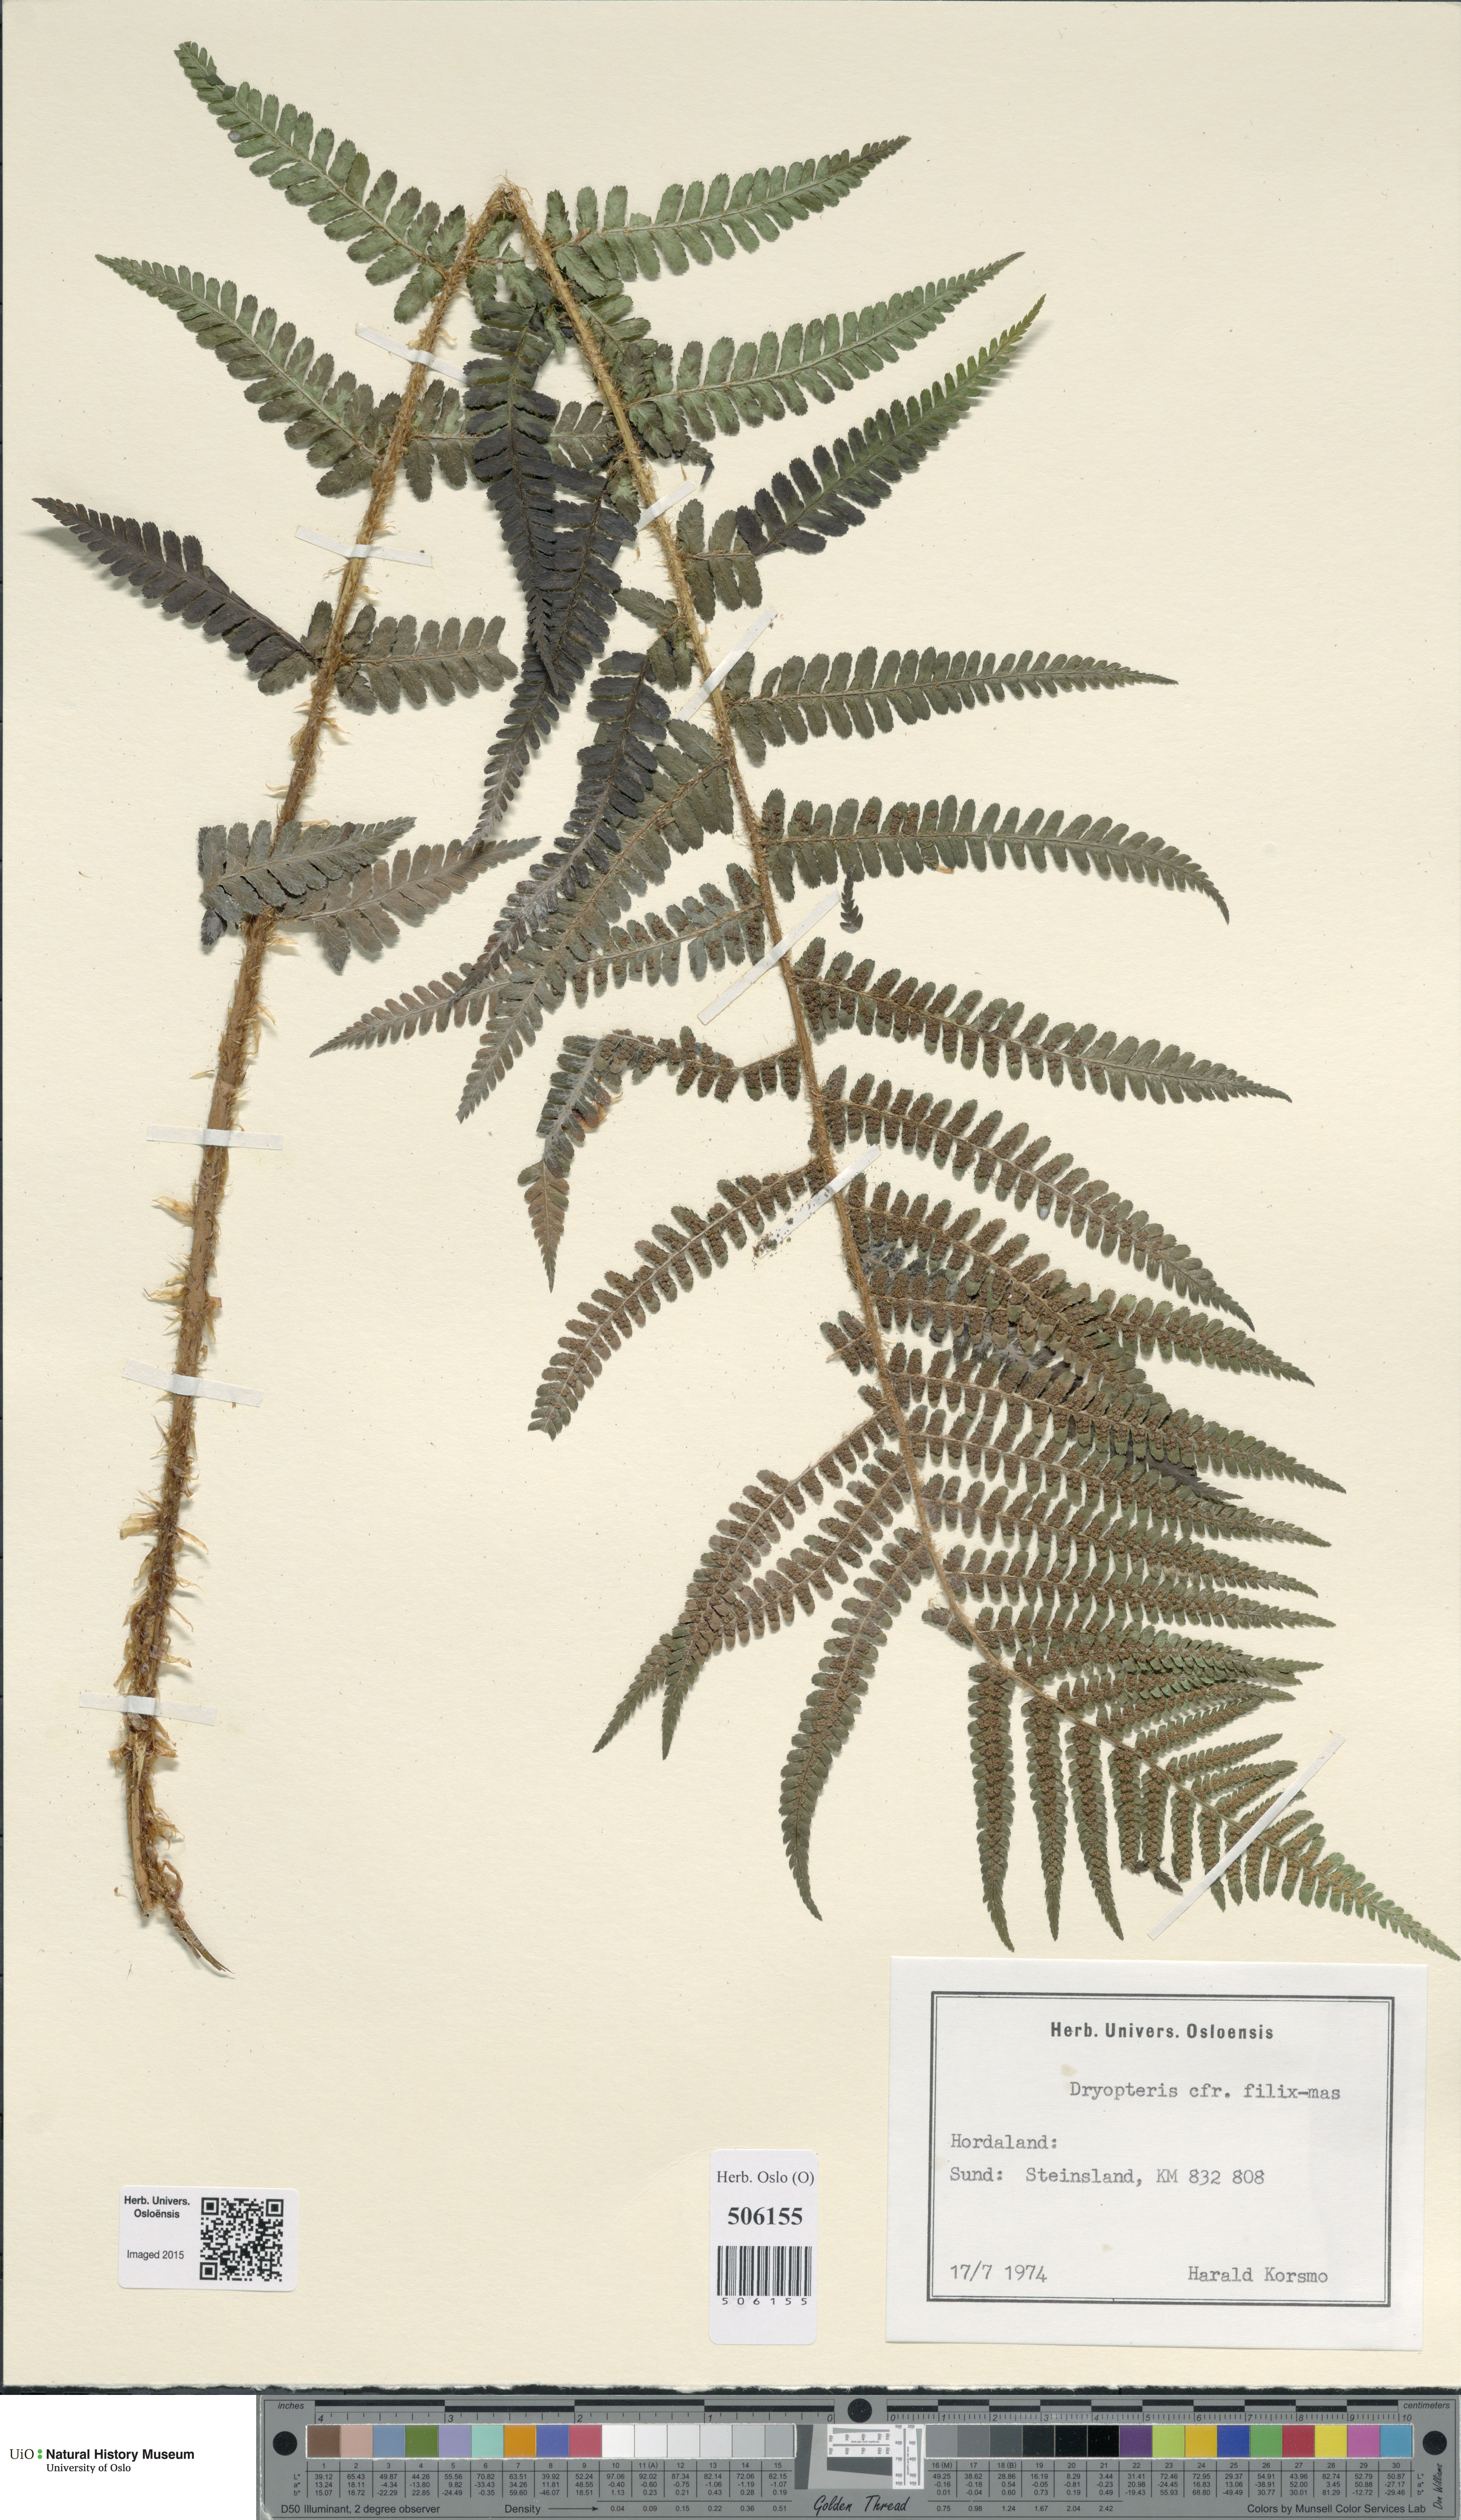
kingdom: Plantae
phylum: Tracheophyta
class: Polypodiopsida
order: Polypodiales
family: Dryopteridaceae
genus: Dryopteris
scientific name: Dryopteris filix-mas
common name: Male fern
